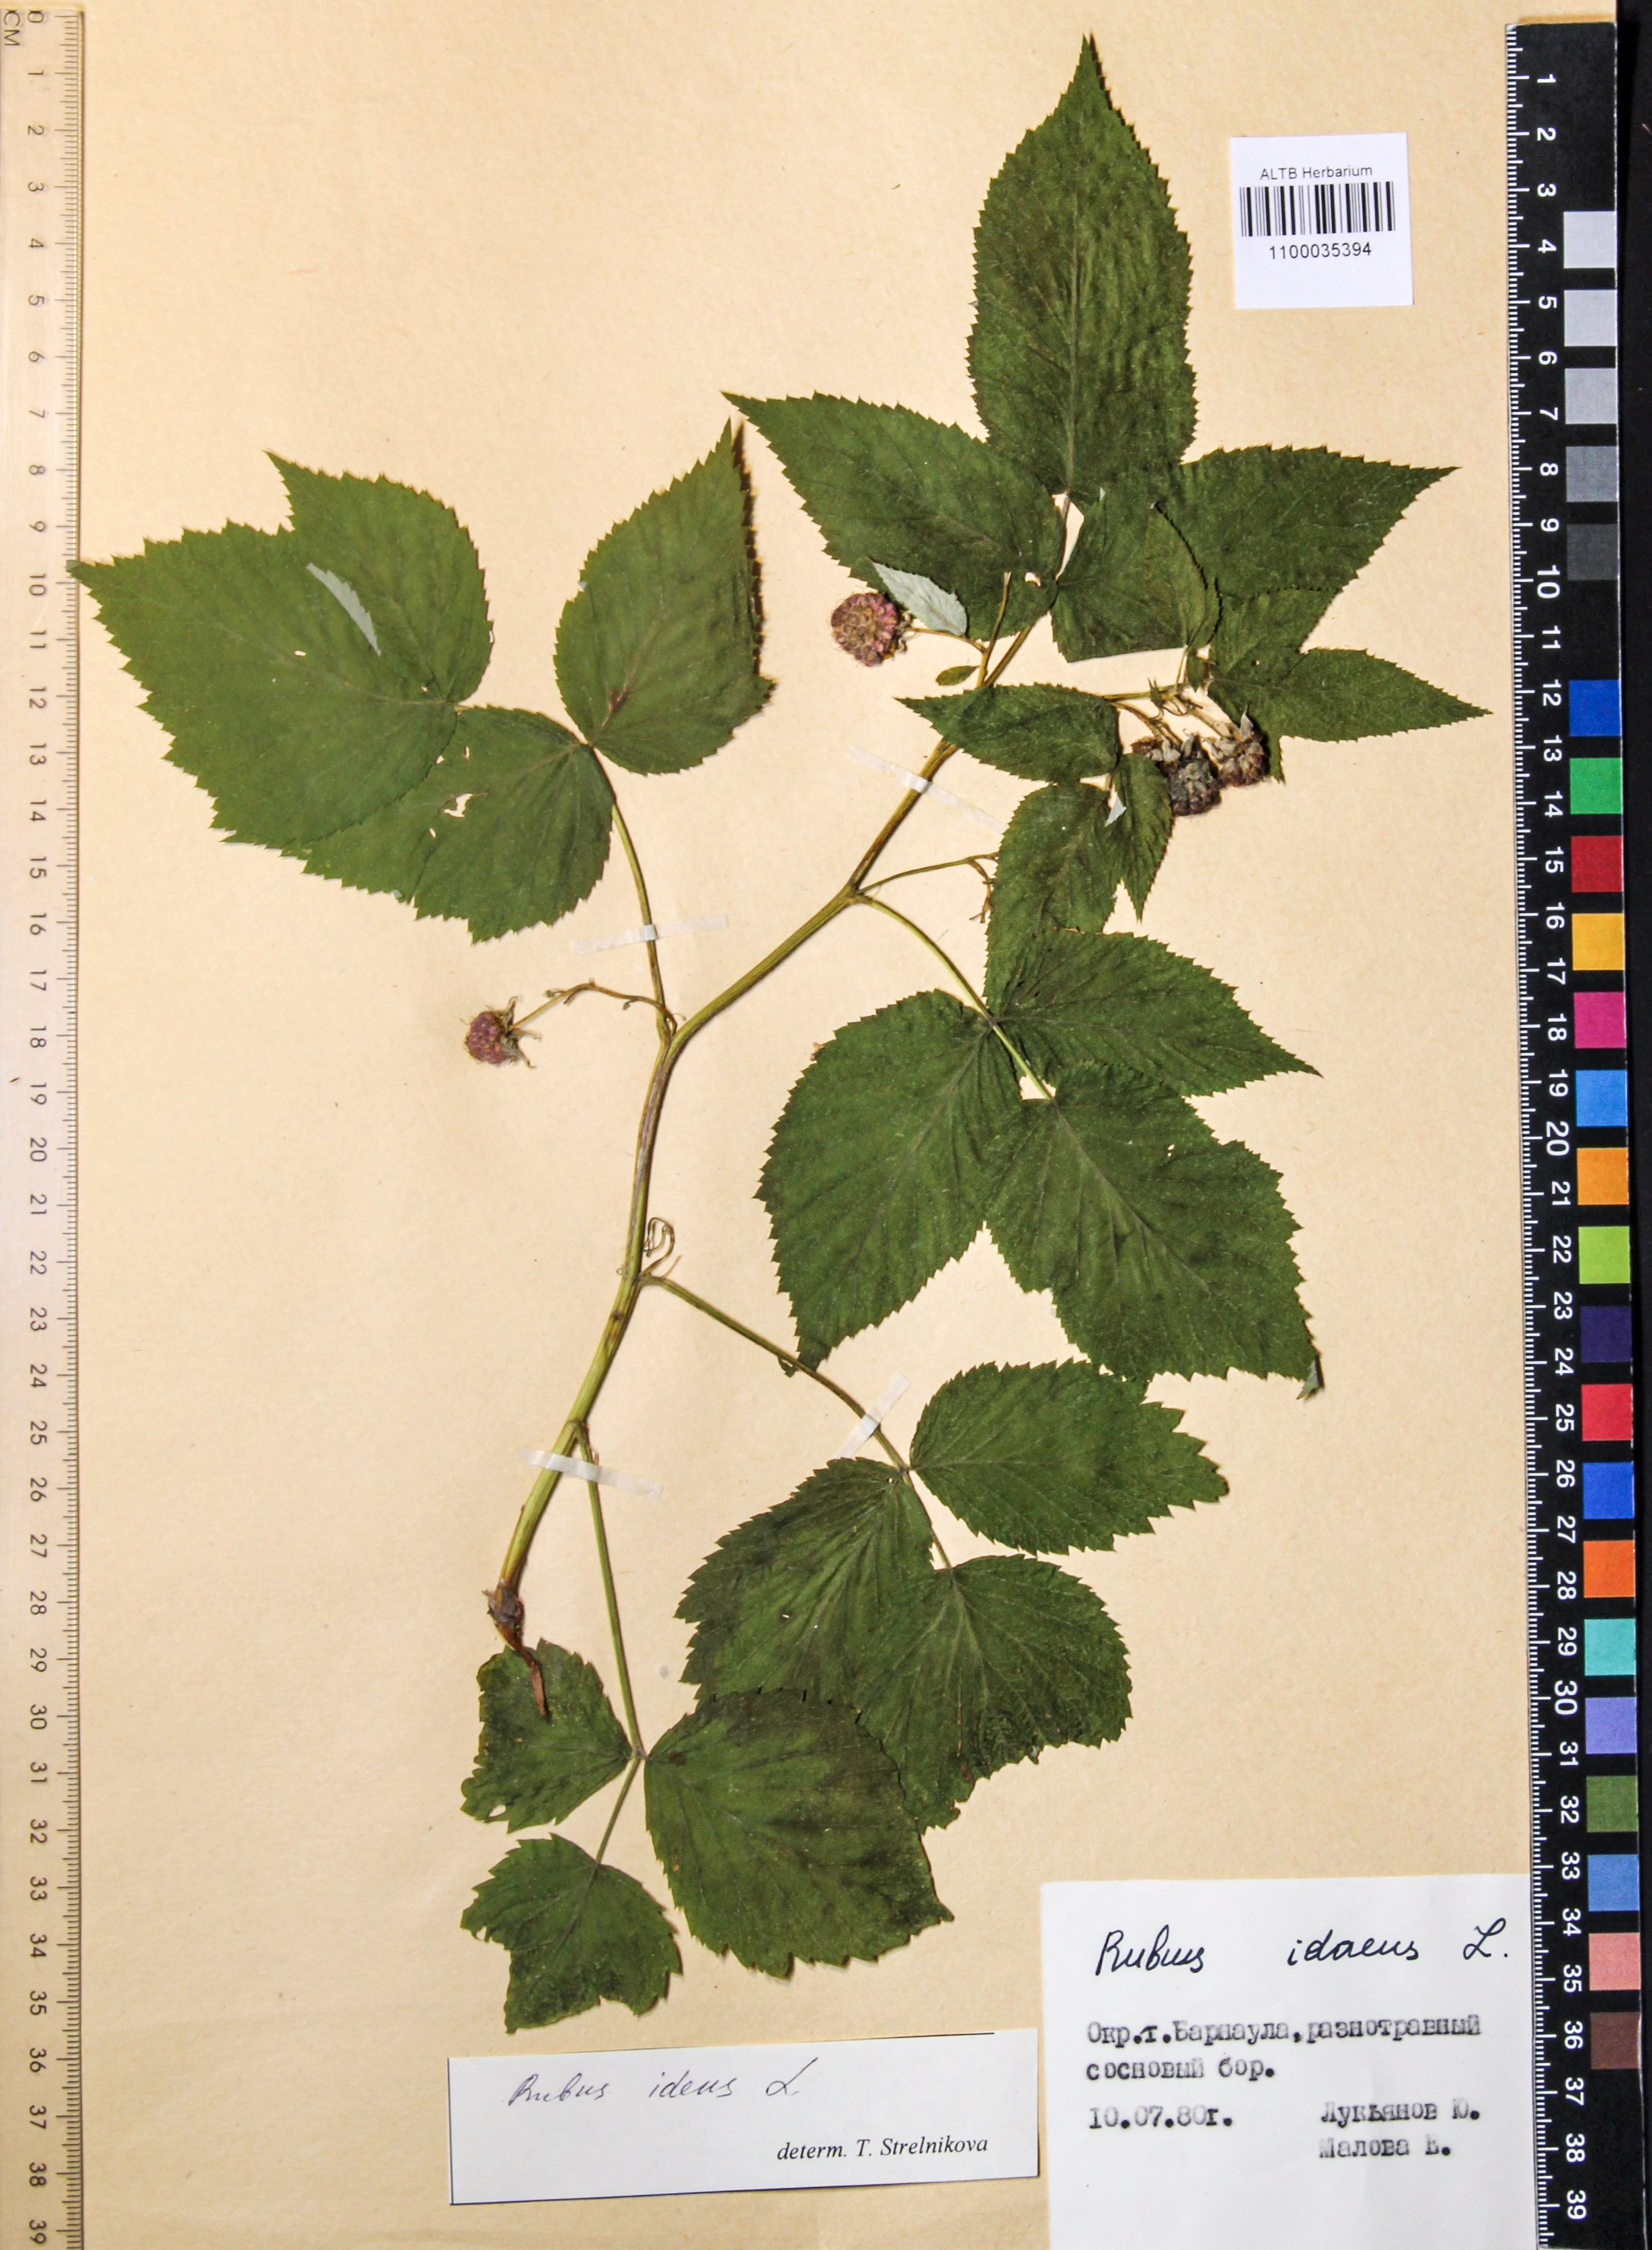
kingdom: Plantae
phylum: Tracheophyta
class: Magnoliopsida
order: Rosales
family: Rosaceae
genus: Rubus
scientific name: Rubus idaeus
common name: Raspberry
